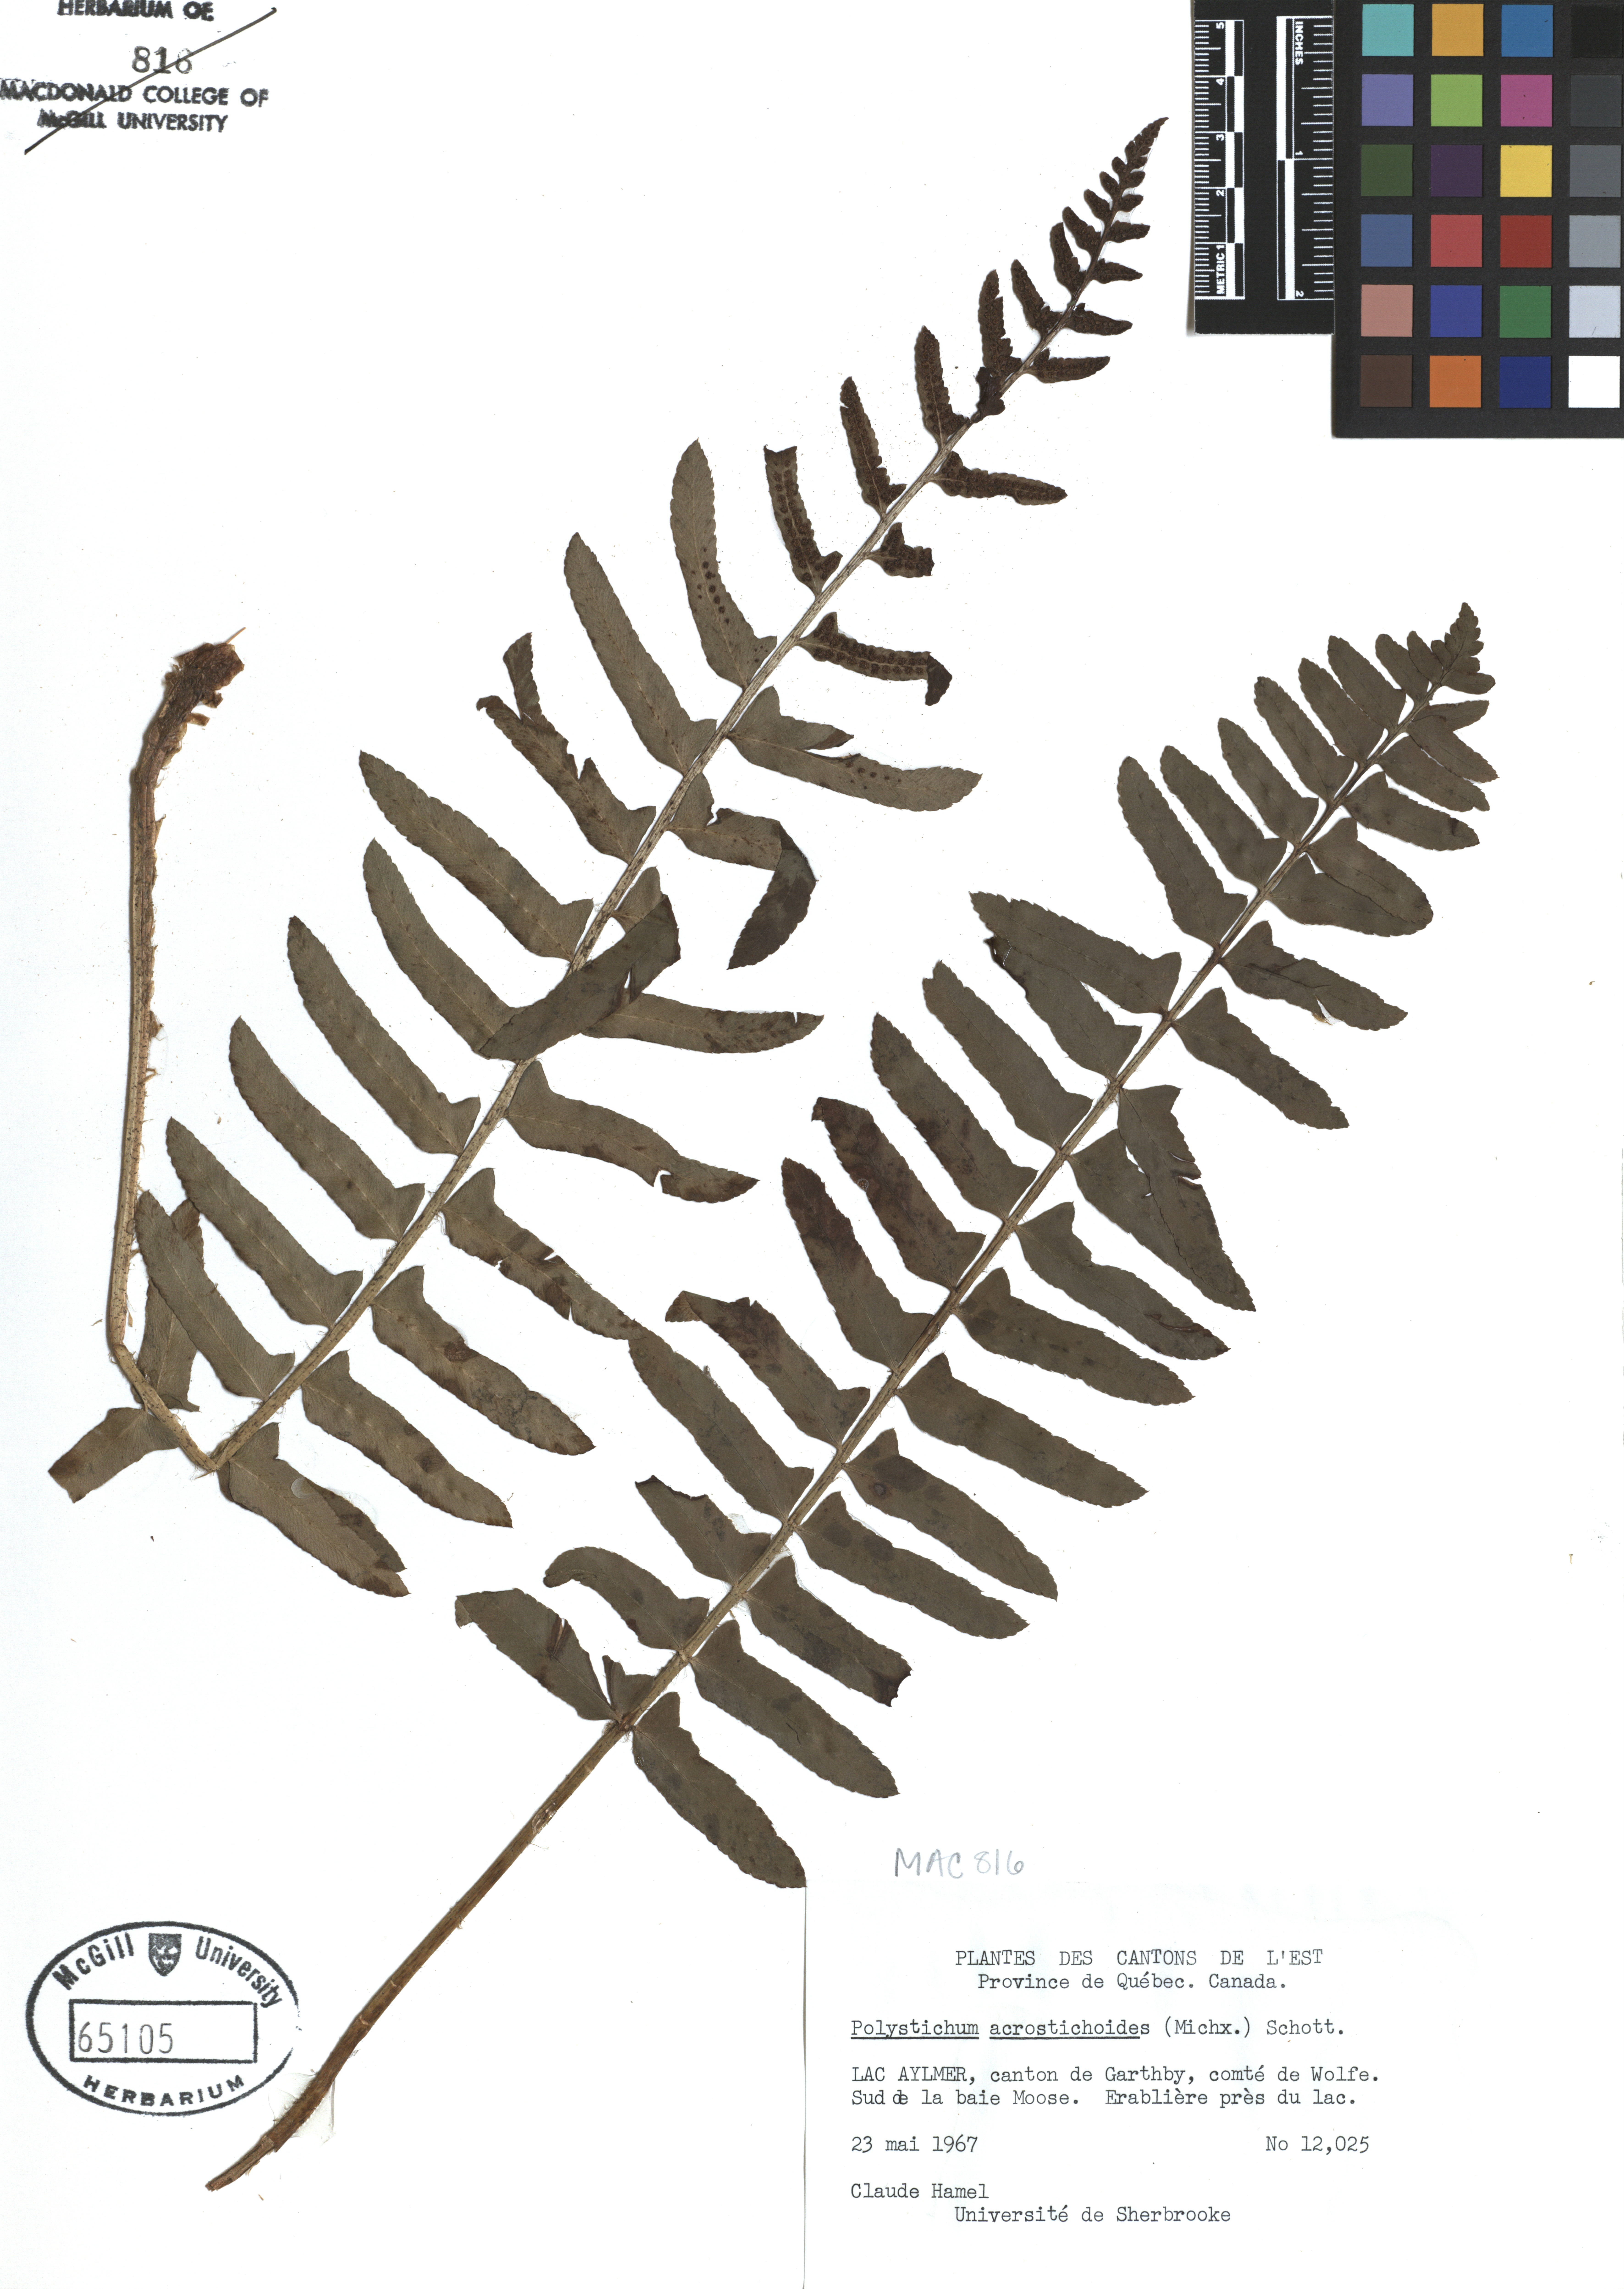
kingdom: Plantae
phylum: Tracheophyta
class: Polypodiopsida
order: Polypodiales
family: Dryopteridaceae
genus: Polystichum
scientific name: Polystichum acrostichoides
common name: Christmas fern
